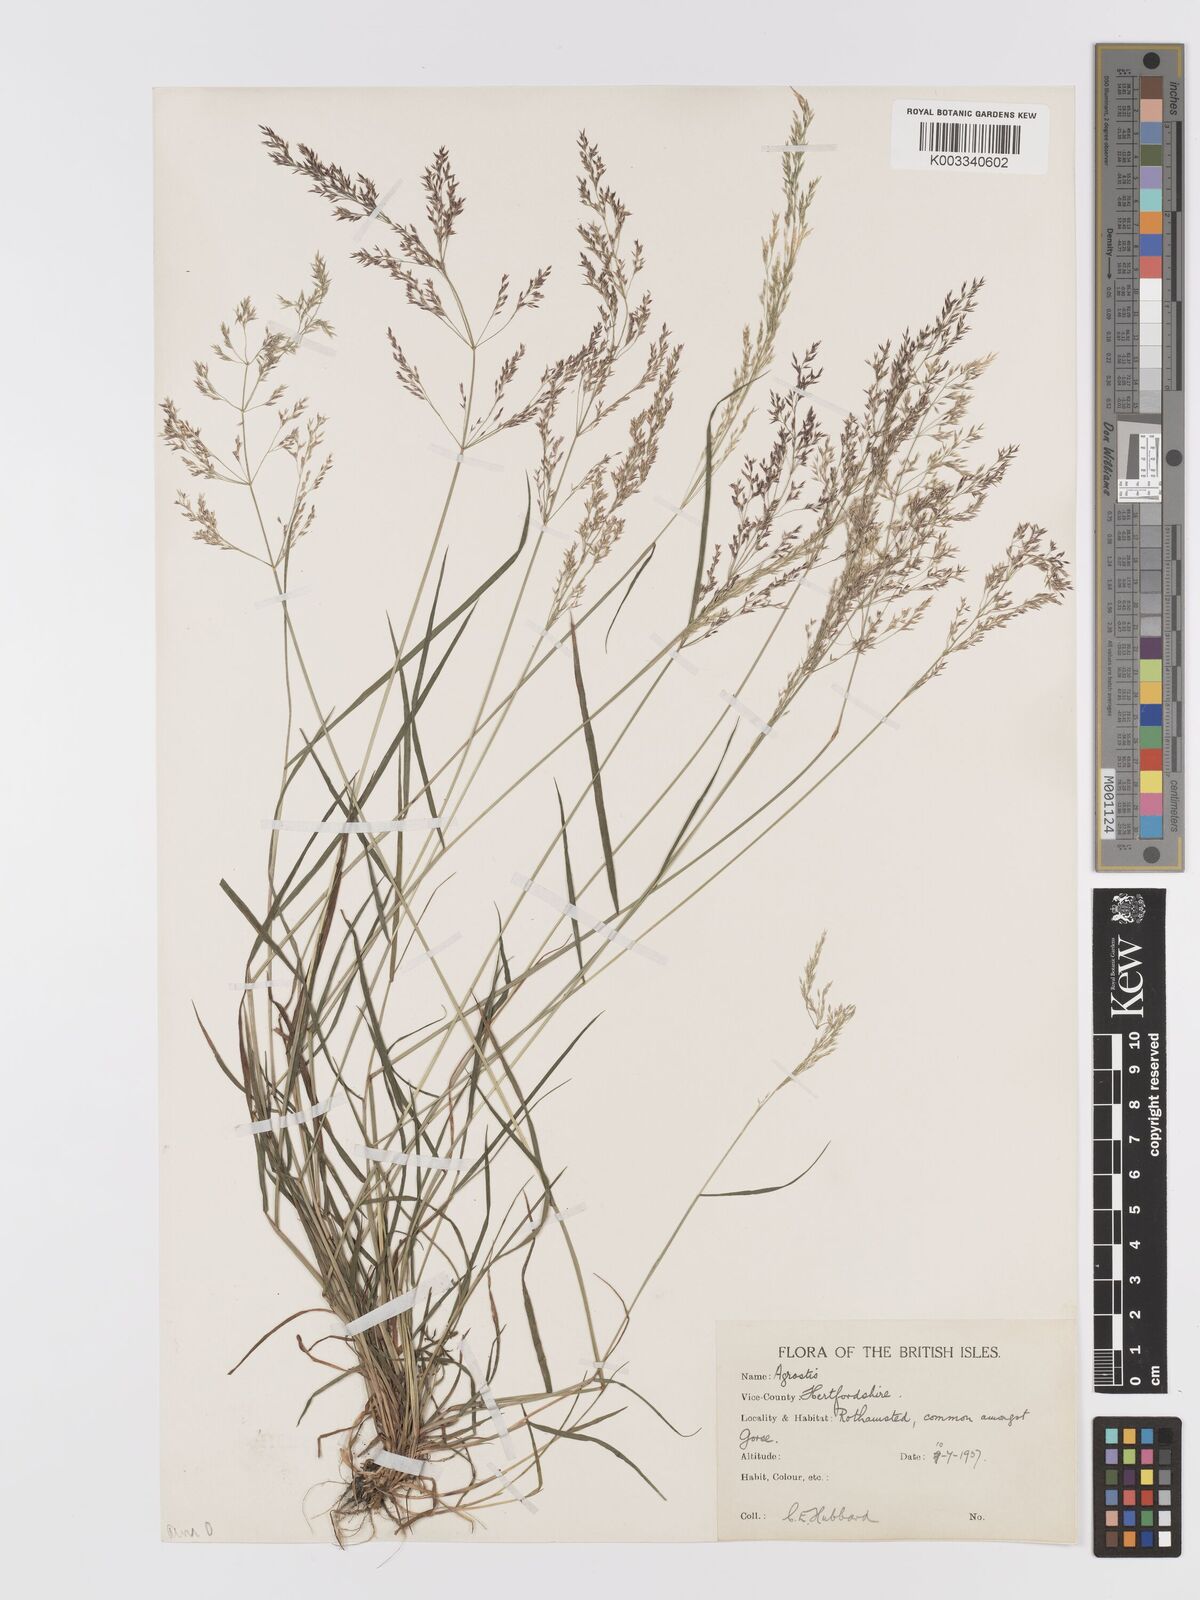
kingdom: Plantae
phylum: Tracheophyta
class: Liliopsida
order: Poales
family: Poaceae
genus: Agrostis
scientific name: Agrostis capillaris
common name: Colonial bentgrass
